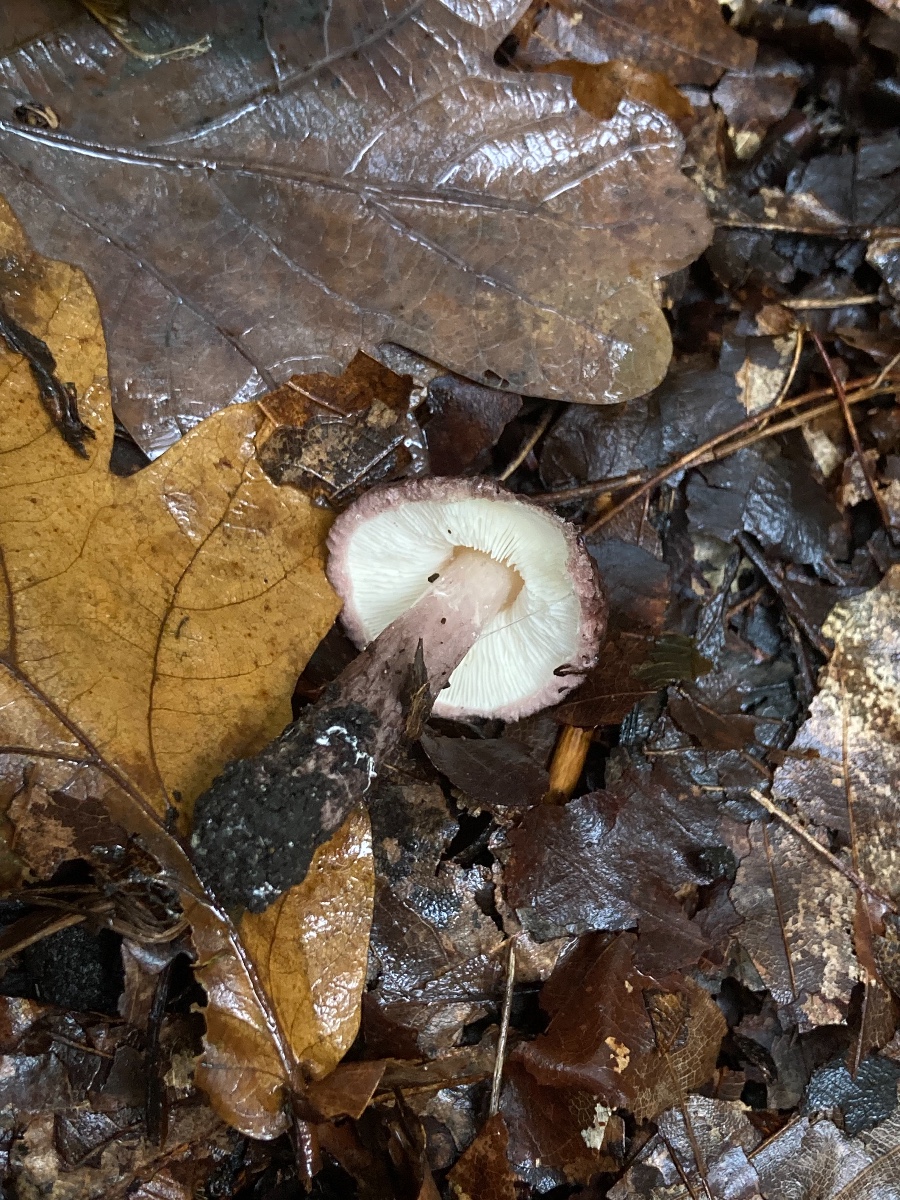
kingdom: Fungi
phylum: Basidiomycota
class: Agaricomycetes
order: Agaricales
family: Agaricaceae
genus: Lepiota
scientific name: Lepiota fuscovinacea
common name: vinrød parasolhat
